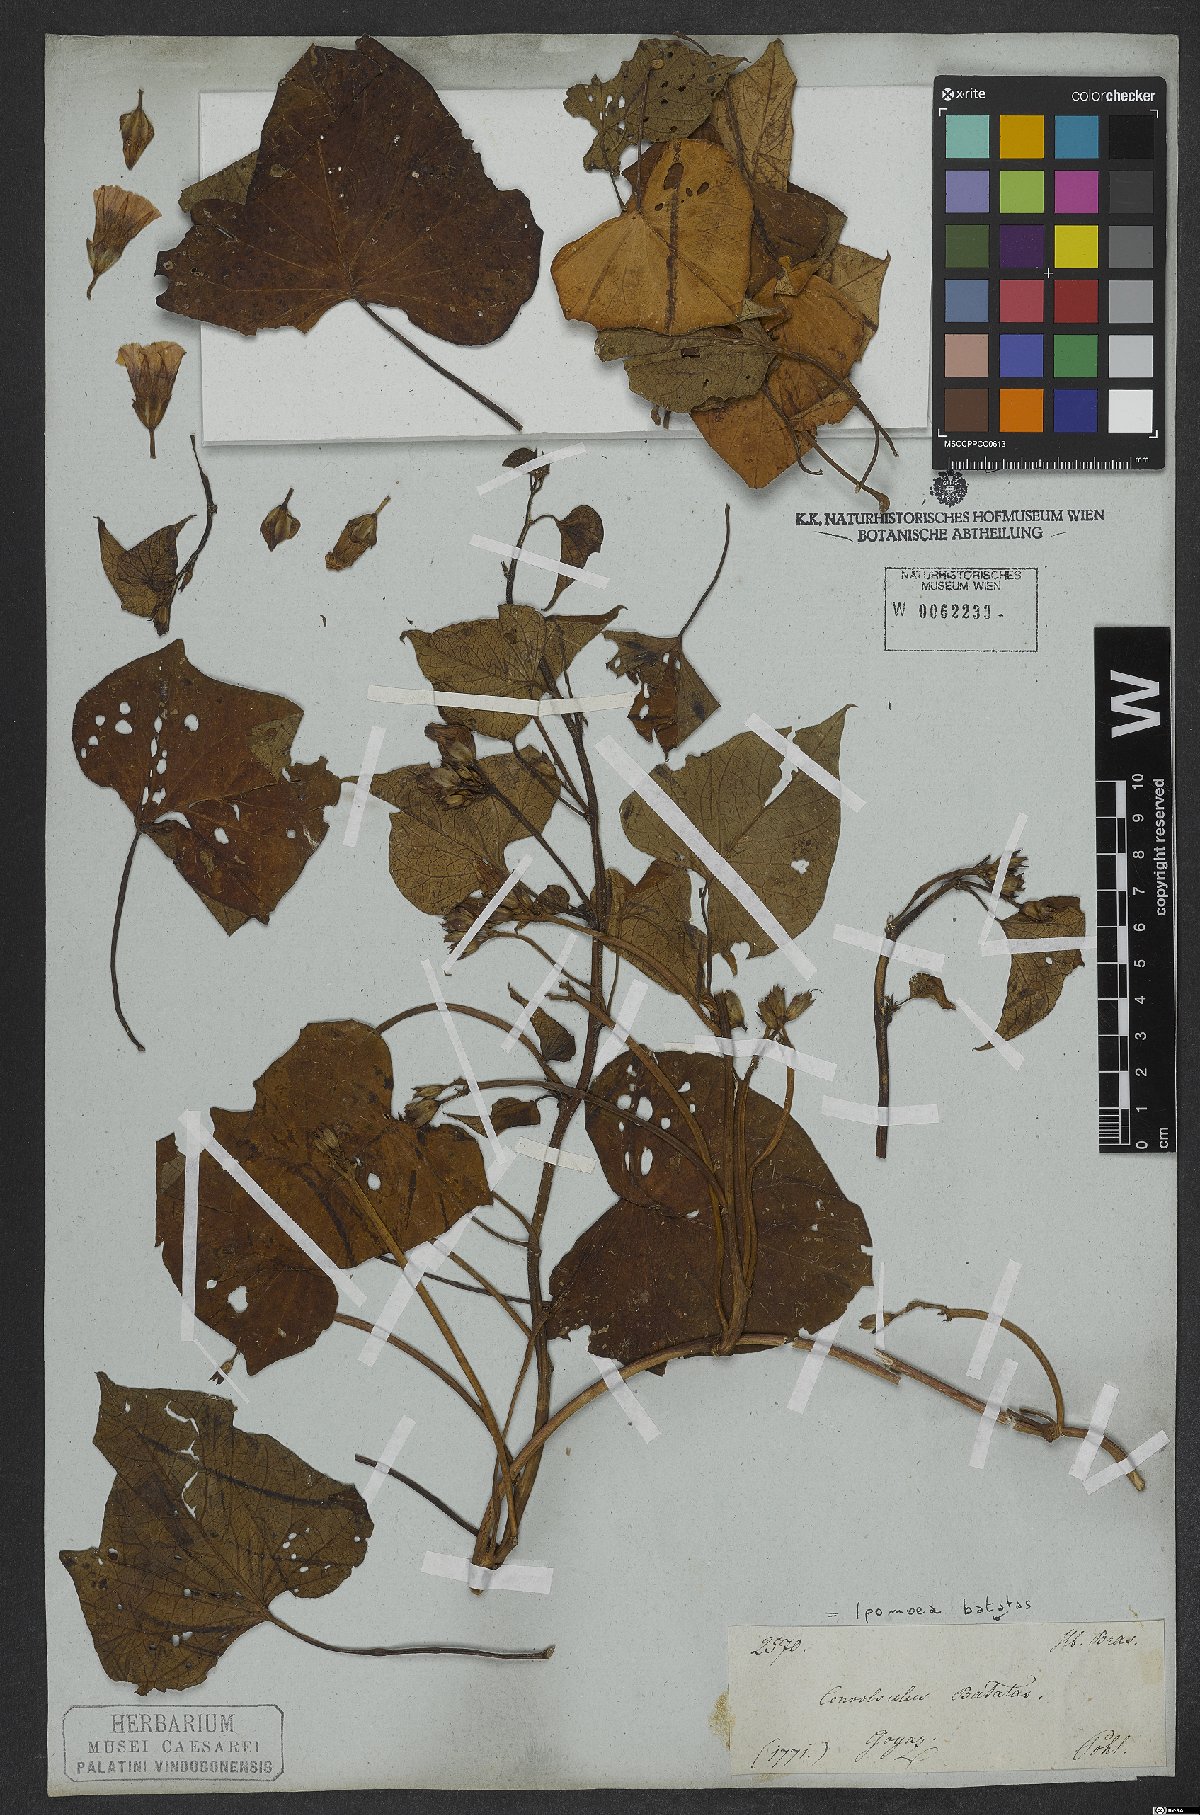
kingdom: Plantae
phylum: Tracheophyta
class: Magnoliopsida
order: Solanales
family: Convolvulaceae
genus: Ipomoea
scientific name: Ipomoea batatas
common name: Sweet-potato
